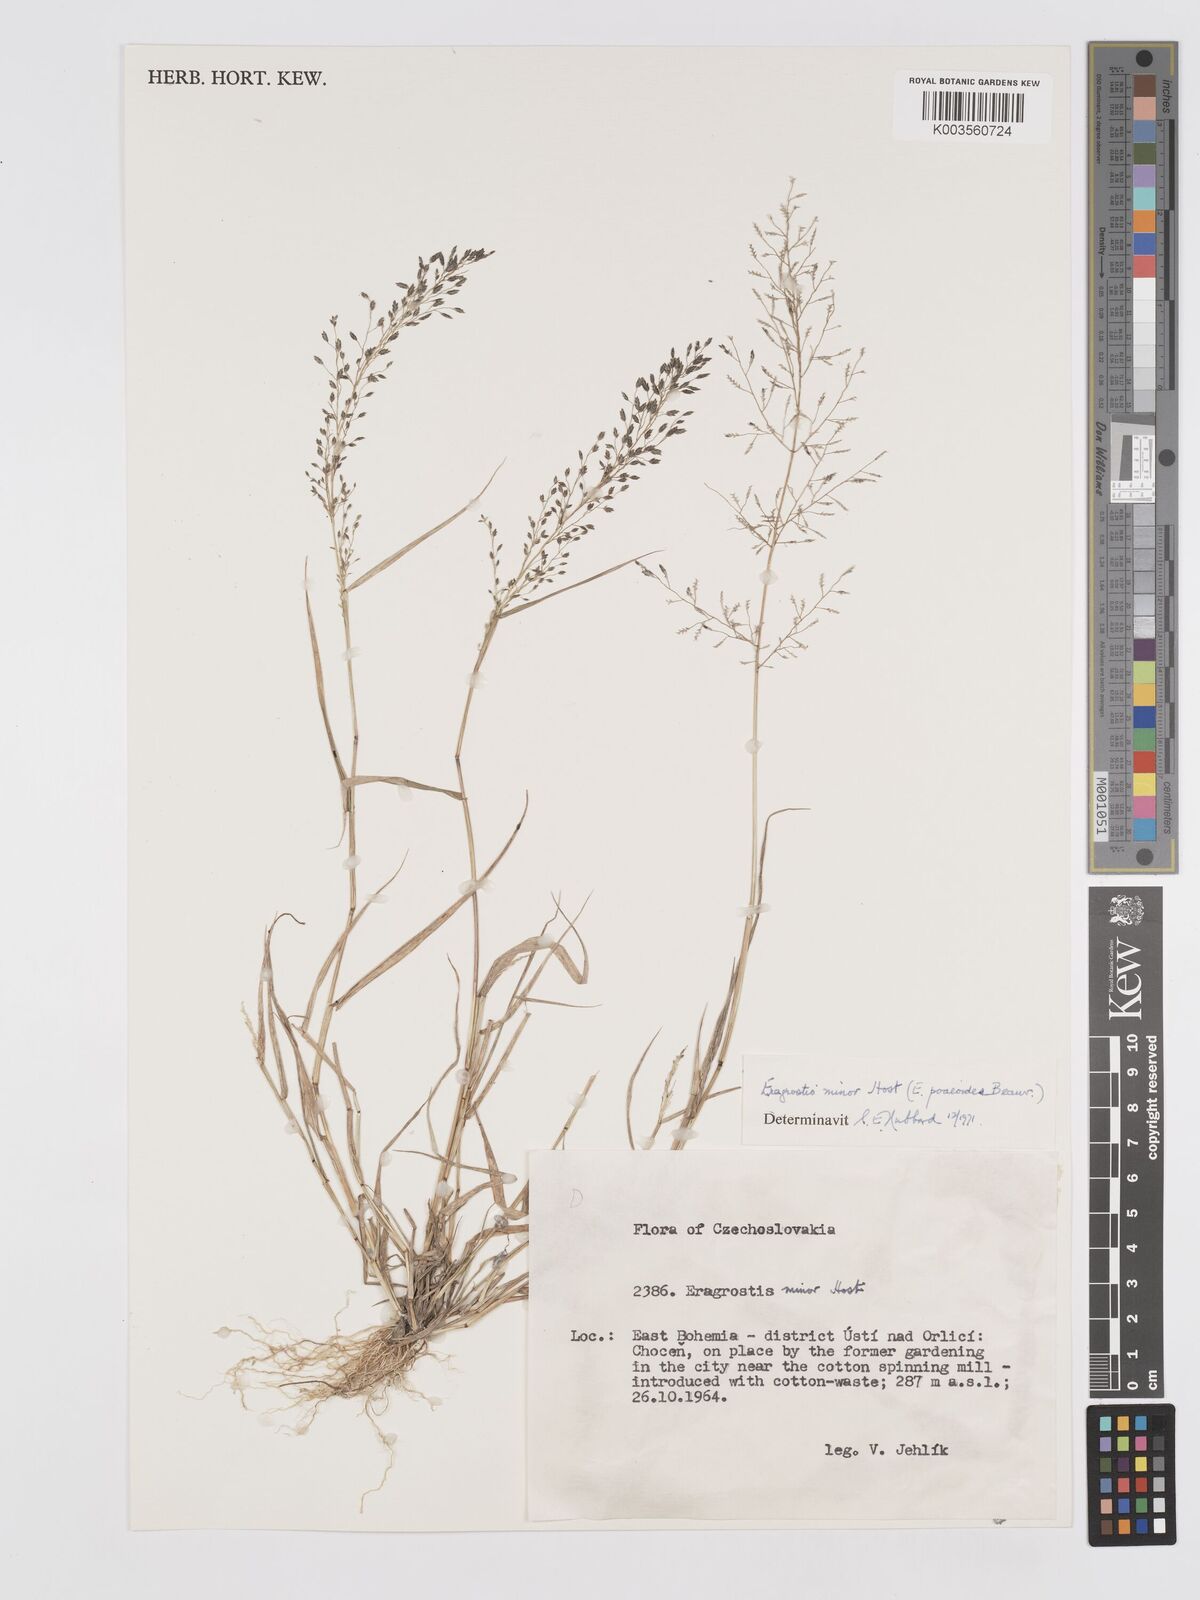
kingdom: Plantae
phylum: Tracheophyta
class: Liliopsida
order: Poales
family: Poaceae
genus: Eragrostis
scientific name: Eragrostis minor
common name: Small love-grass
